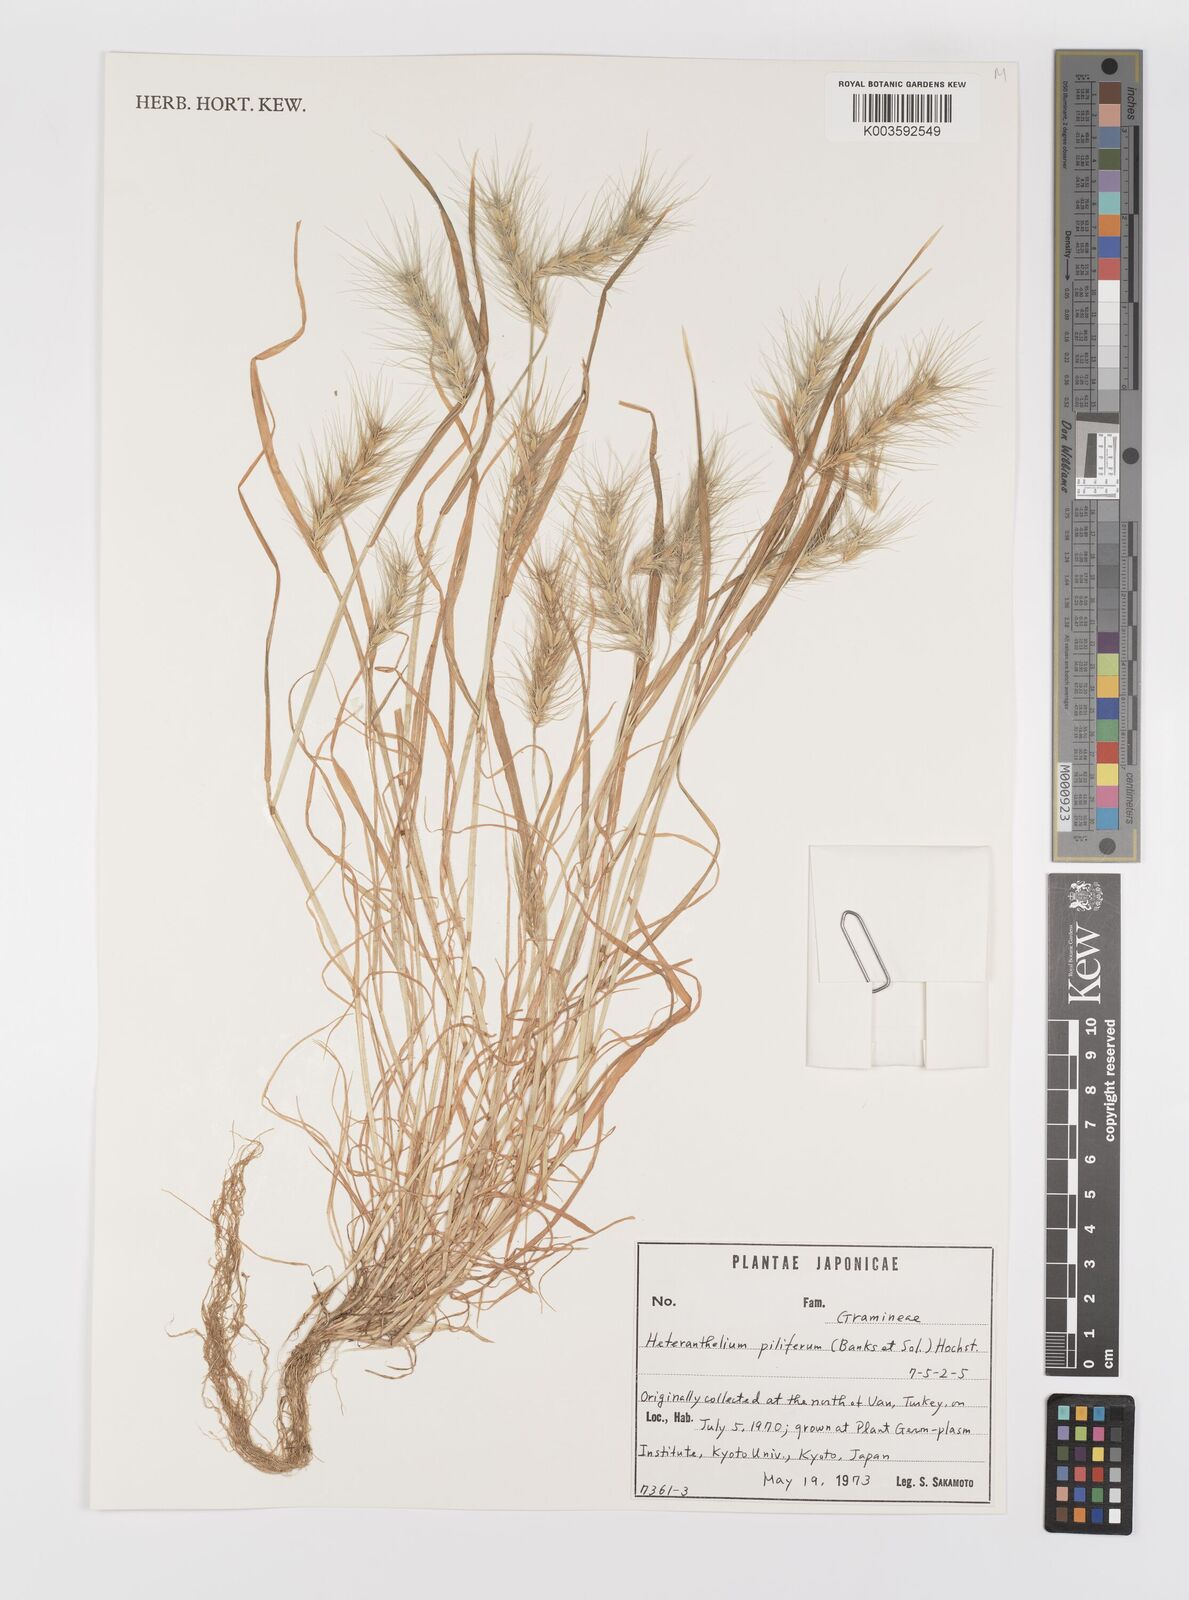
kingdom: Plantae
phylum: Tracheophyta
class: Liliopsida
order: Poales
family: Poaceae
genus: Heteranthelium
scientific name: Heteranthelium piliferum
